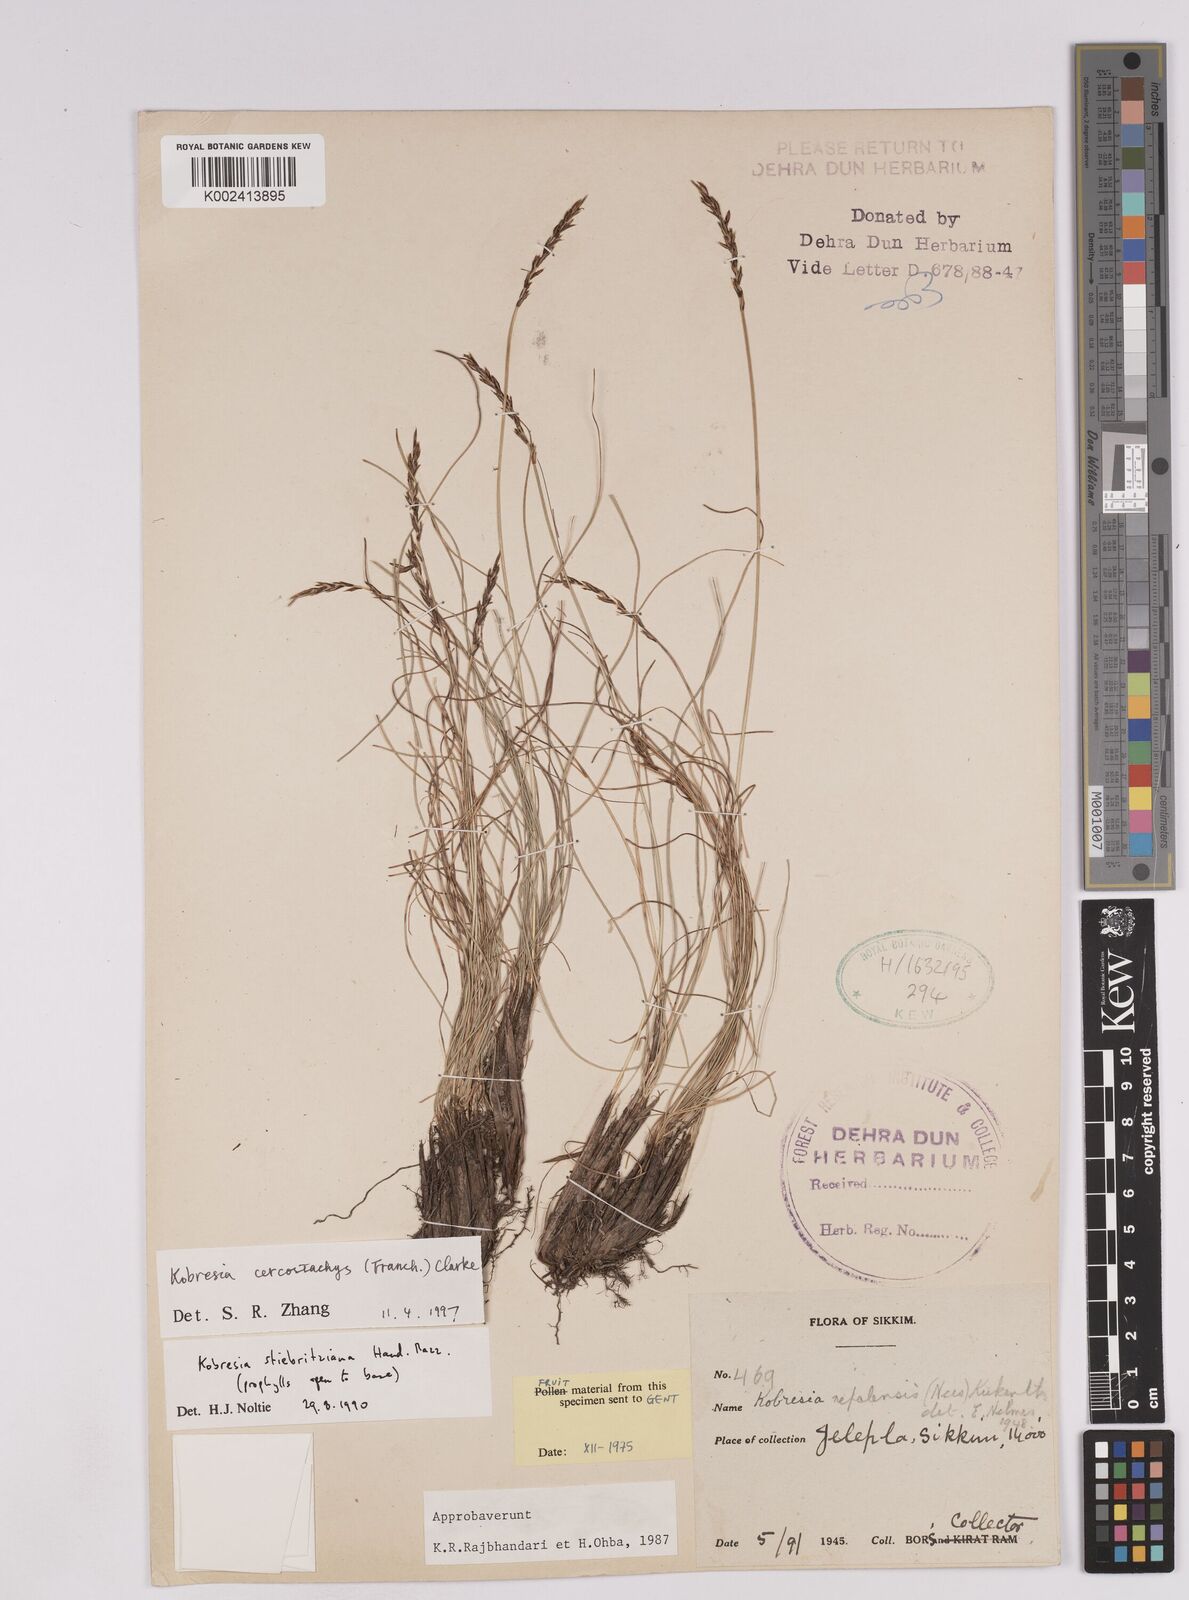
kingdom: Plantae
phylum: Tracheophyta
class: Liliopsida
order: Poales
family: Cyperaceae
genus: Carex
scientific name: Carex cercostachys
